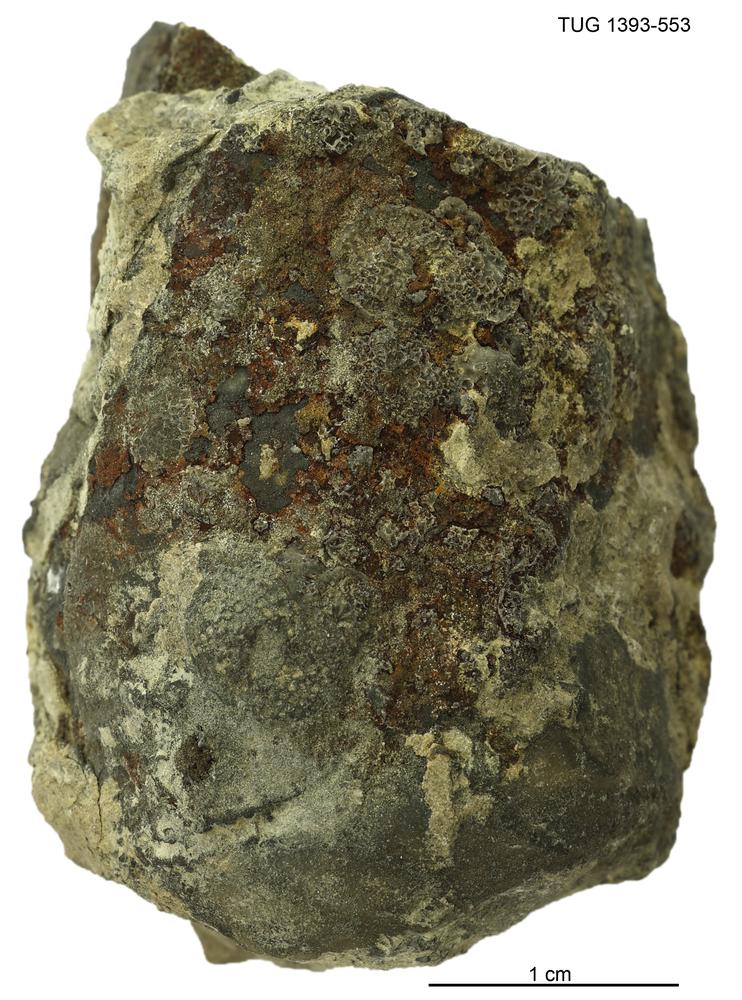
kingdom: Animalia
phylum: Bryozoa
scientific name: Bryozoa
